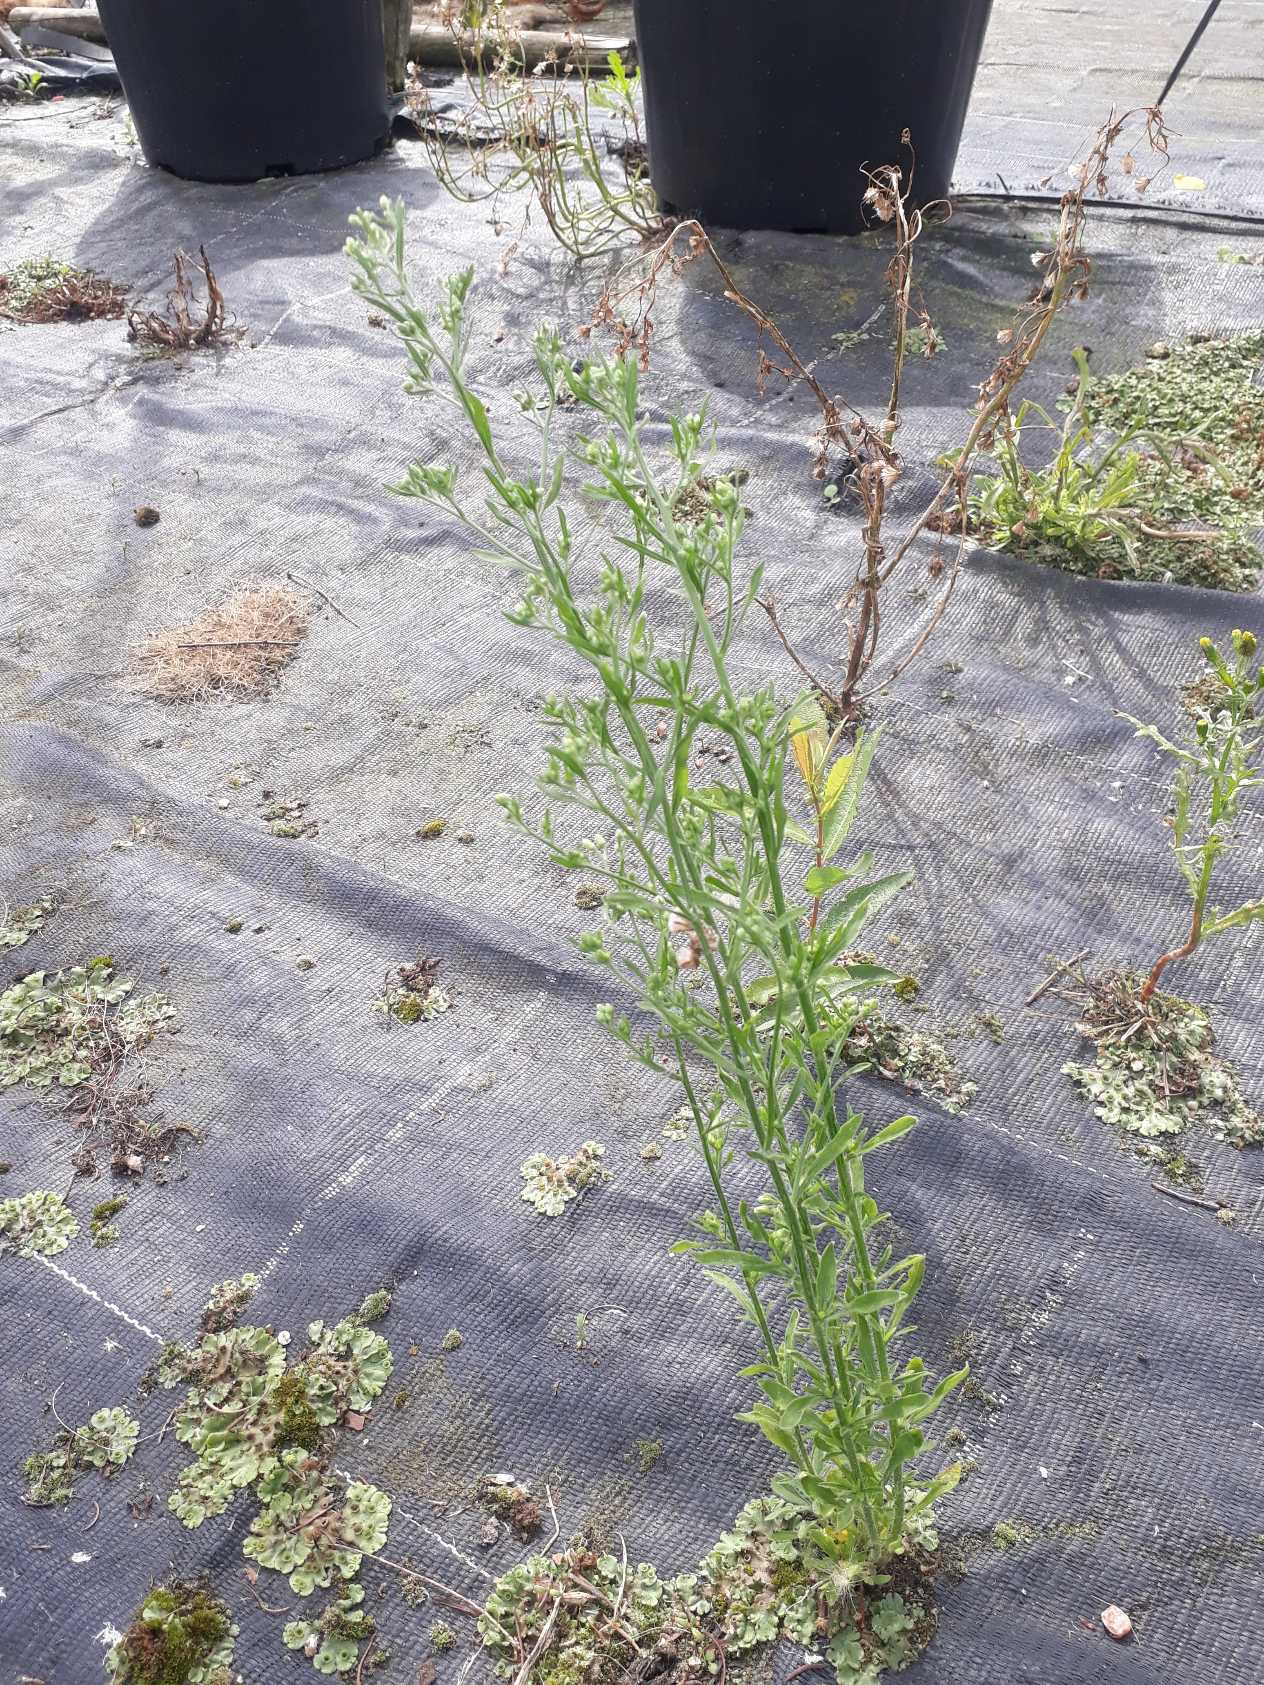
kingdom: Plantae
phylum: Tracheophyta
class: Magnoliopsida
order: Asterales
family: Asteraceae
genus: Erigeron
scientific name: Erigeron sumatrensis
